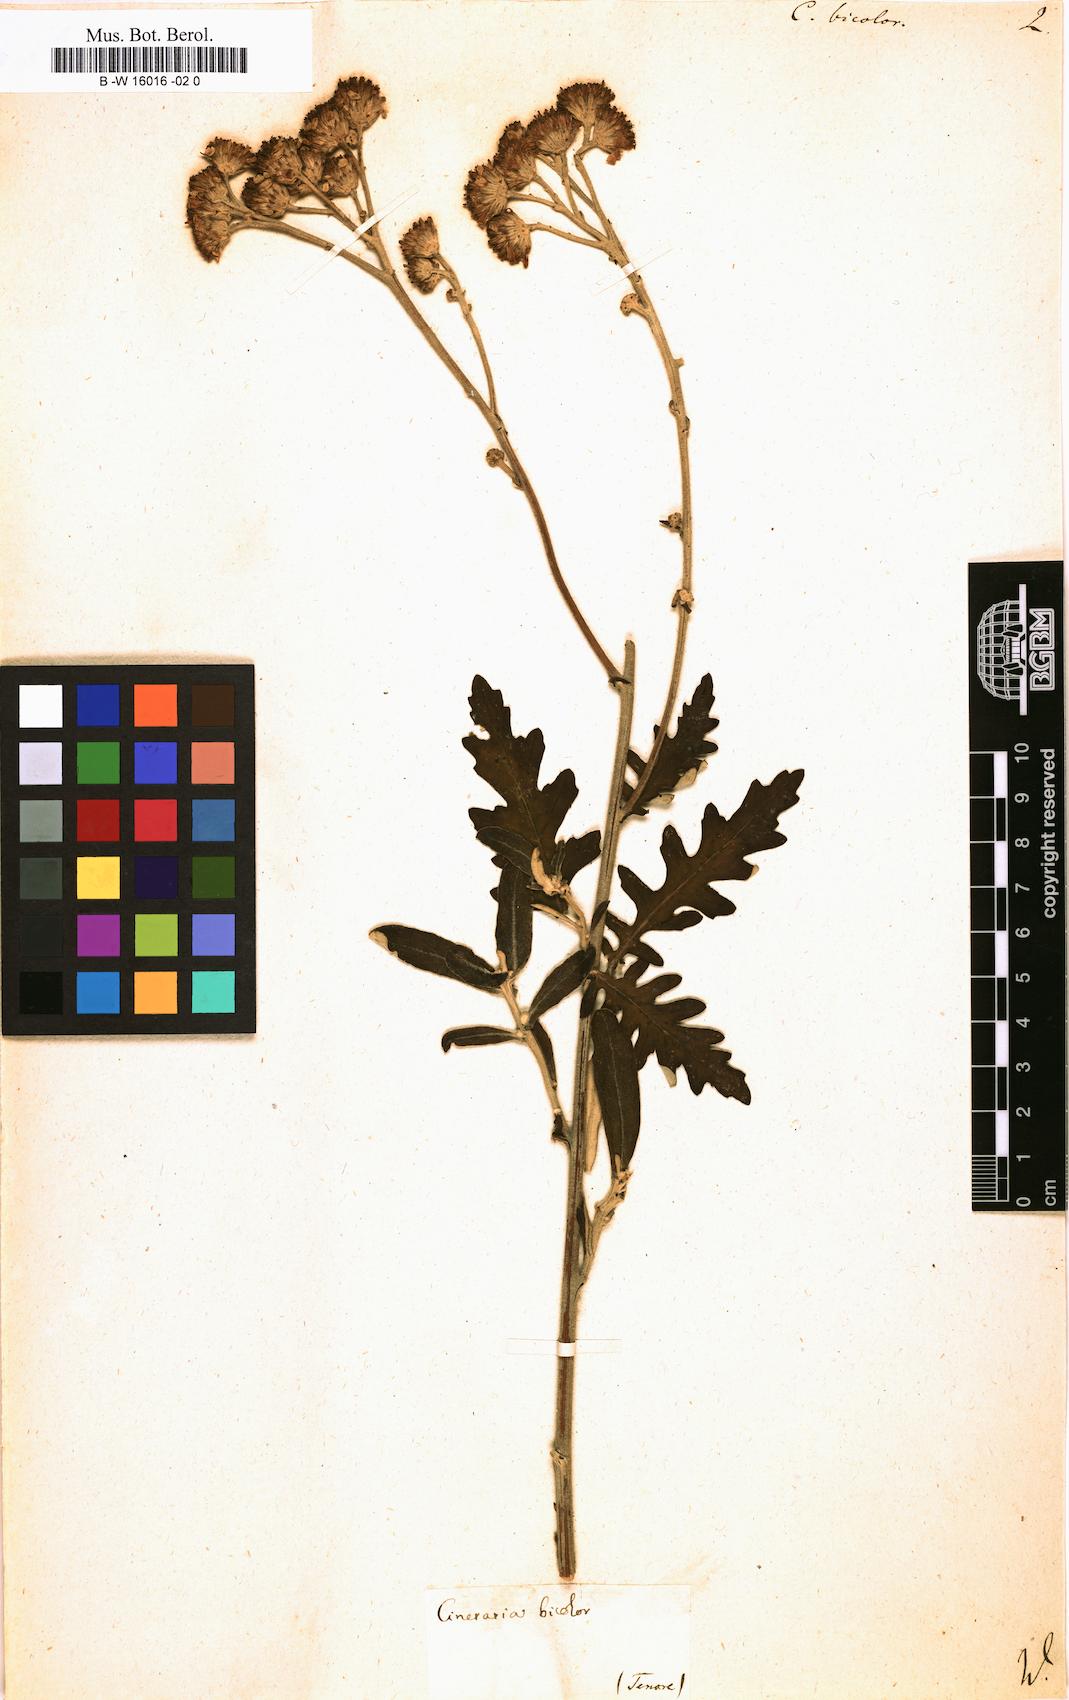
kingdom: Plantae
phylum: Tracheophyta
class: Magnoliopsida
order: Asterales
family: Asteraceae
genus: Jacobaea
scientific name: Jacobaea maritima
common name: Silver ragwort
